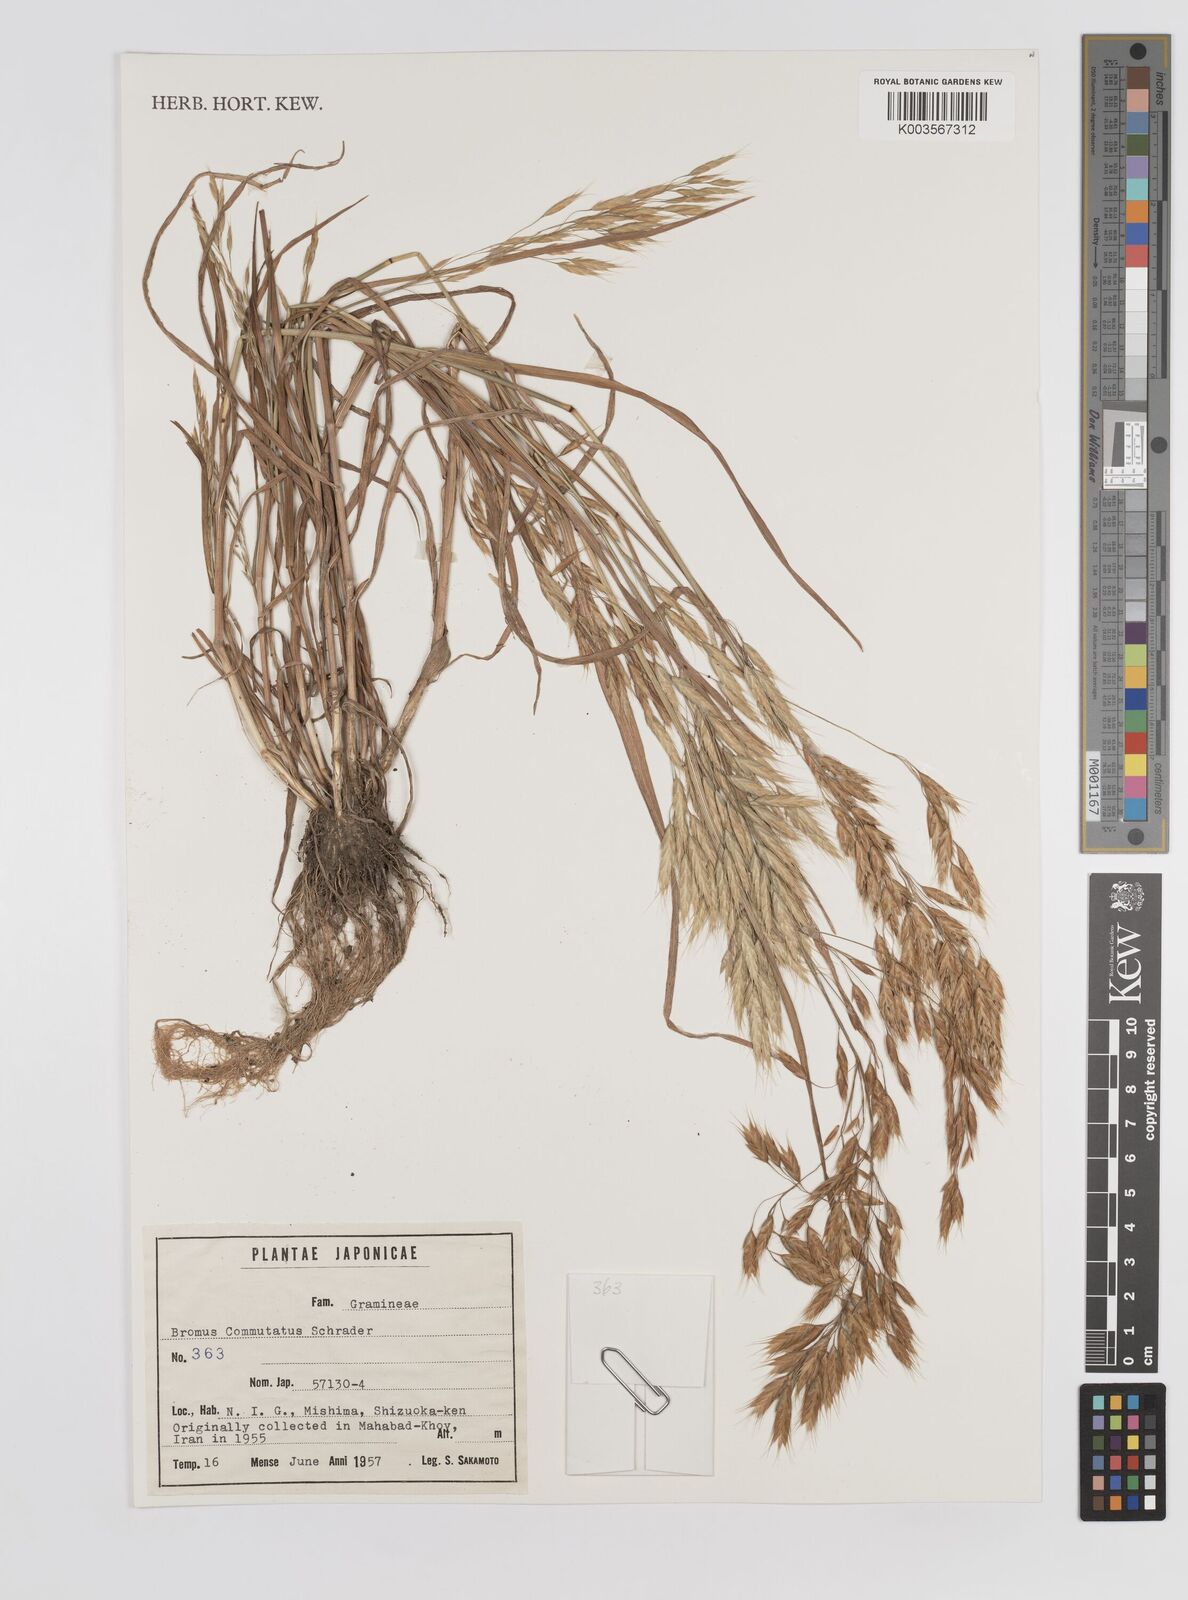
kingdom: Plantae
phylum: Tracheophyta
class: Liliopsida
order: Poales
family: Poaceae
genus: Bromus
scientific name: Bromus racemosus
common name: Bald brome
